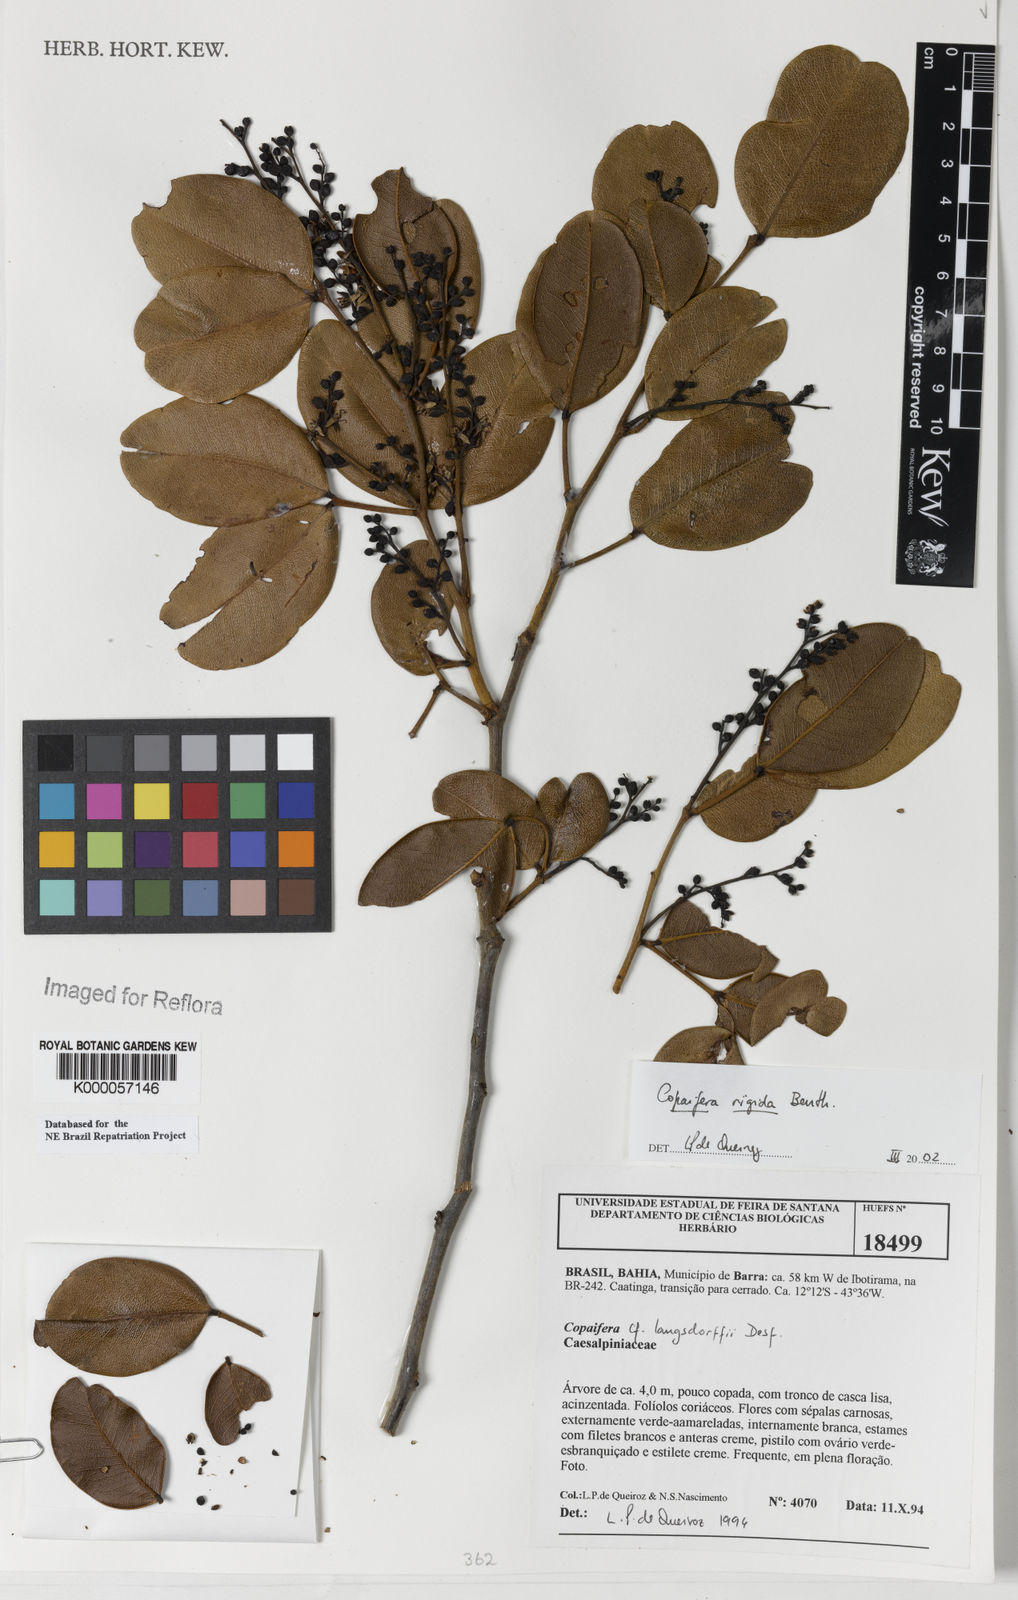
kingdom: Plantae
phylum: Tracheophyta
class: Magnoliopsida
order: Fabales
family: Fabaceae
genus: Copaifera
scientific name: Copaifera martii
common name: Copaiba
